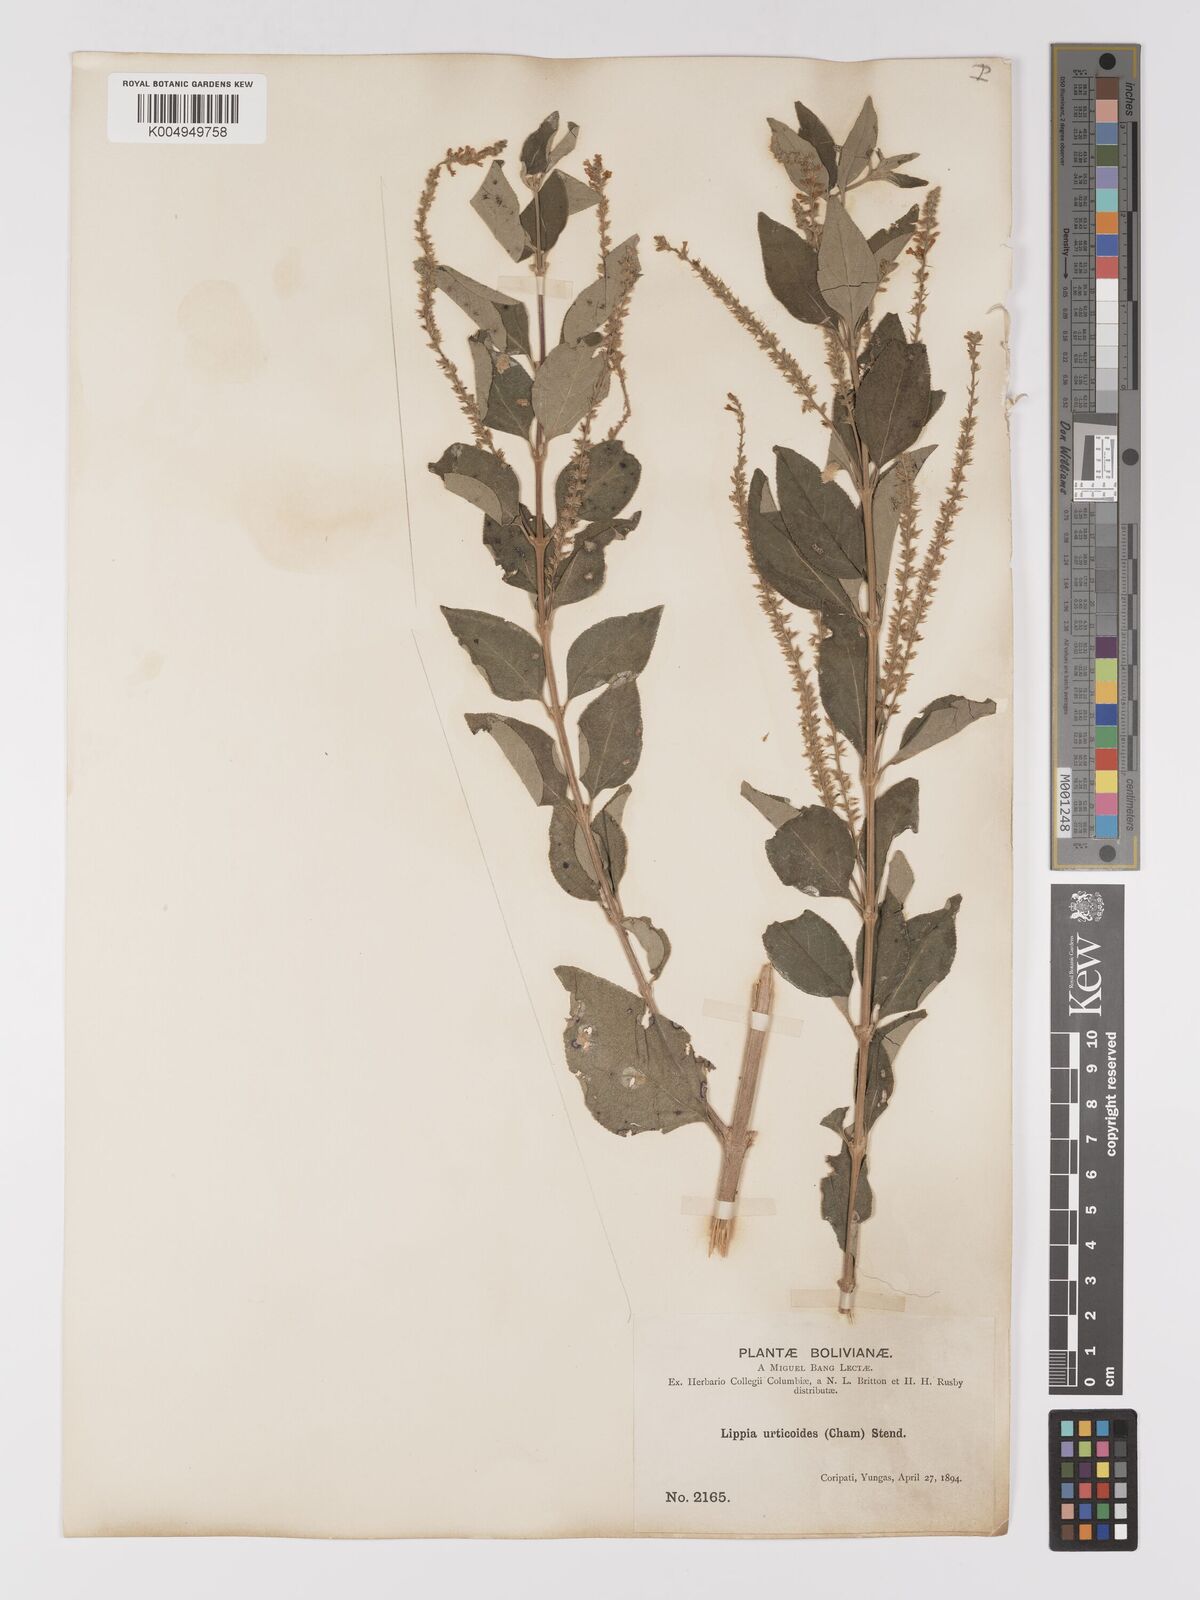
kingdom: Plantae
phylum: Tracheophyta
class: Magnoliopsida
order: Lamiales
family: Verbenaceae
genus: Aloysia
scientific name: Aloysia virgata
